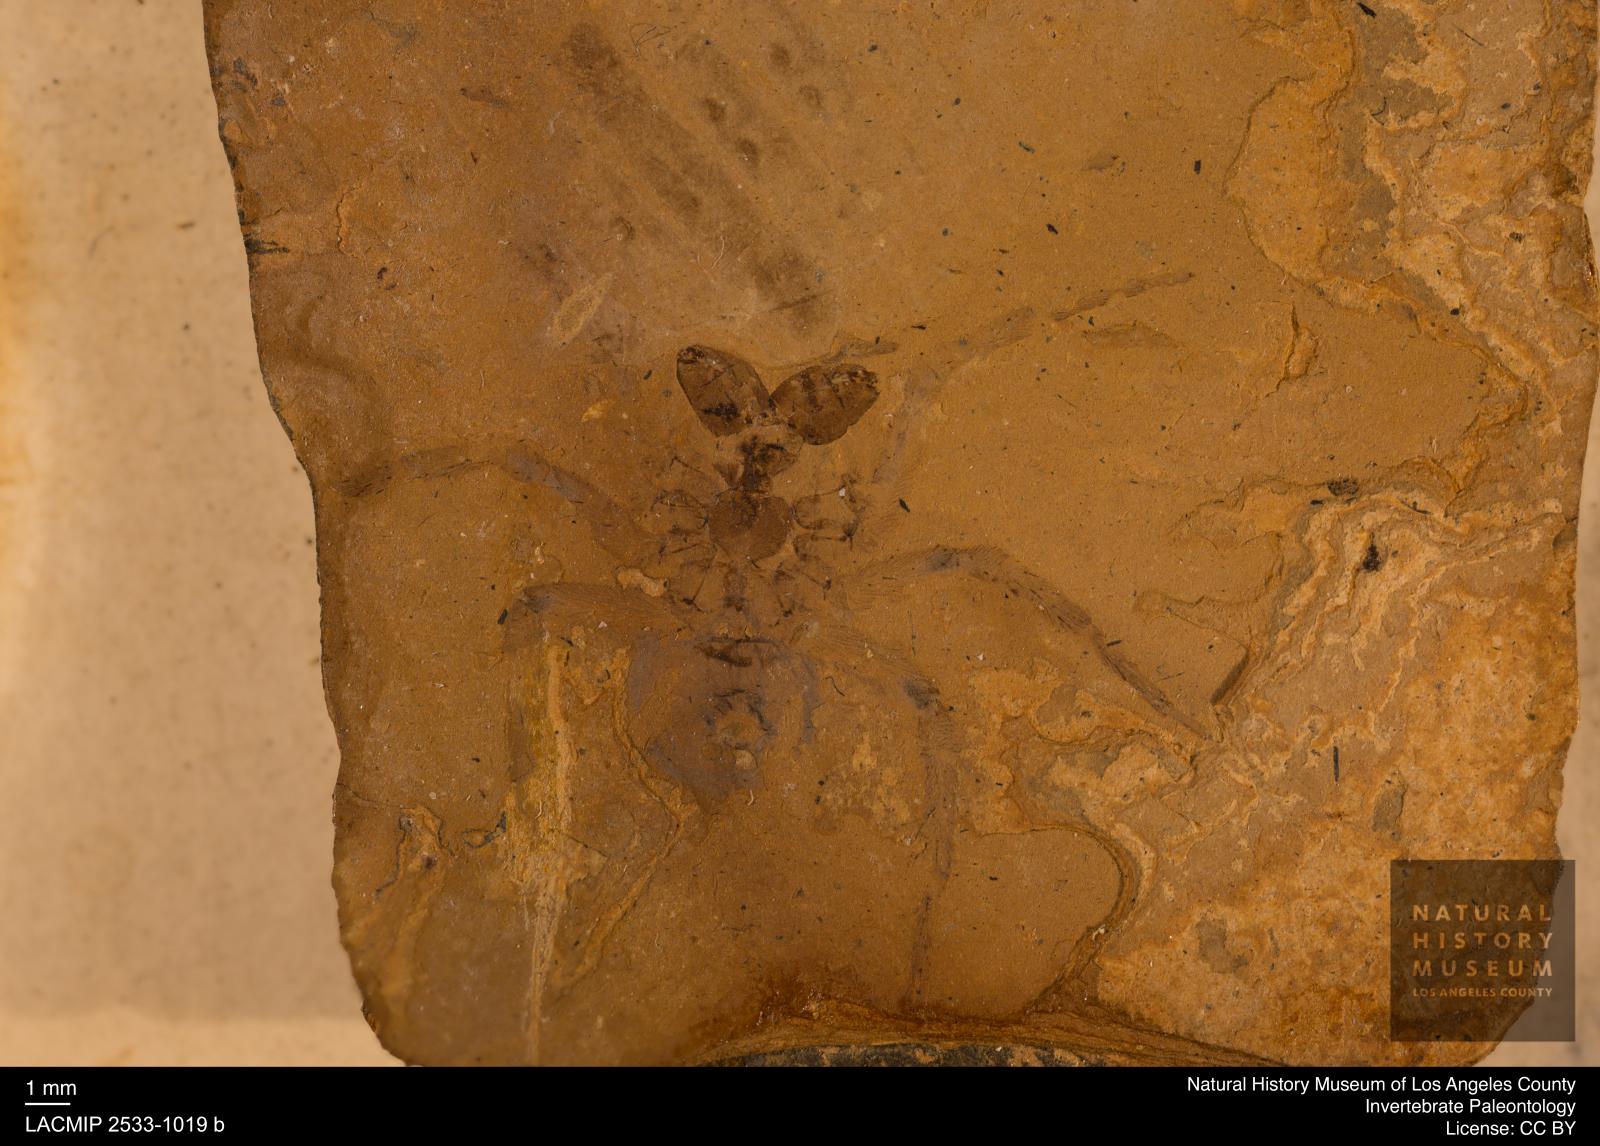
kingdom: Animalia
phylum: Arthropoda
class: Arachnida
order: Araneae
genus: Elvina
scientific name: Elvina Argyroneta antiqua
